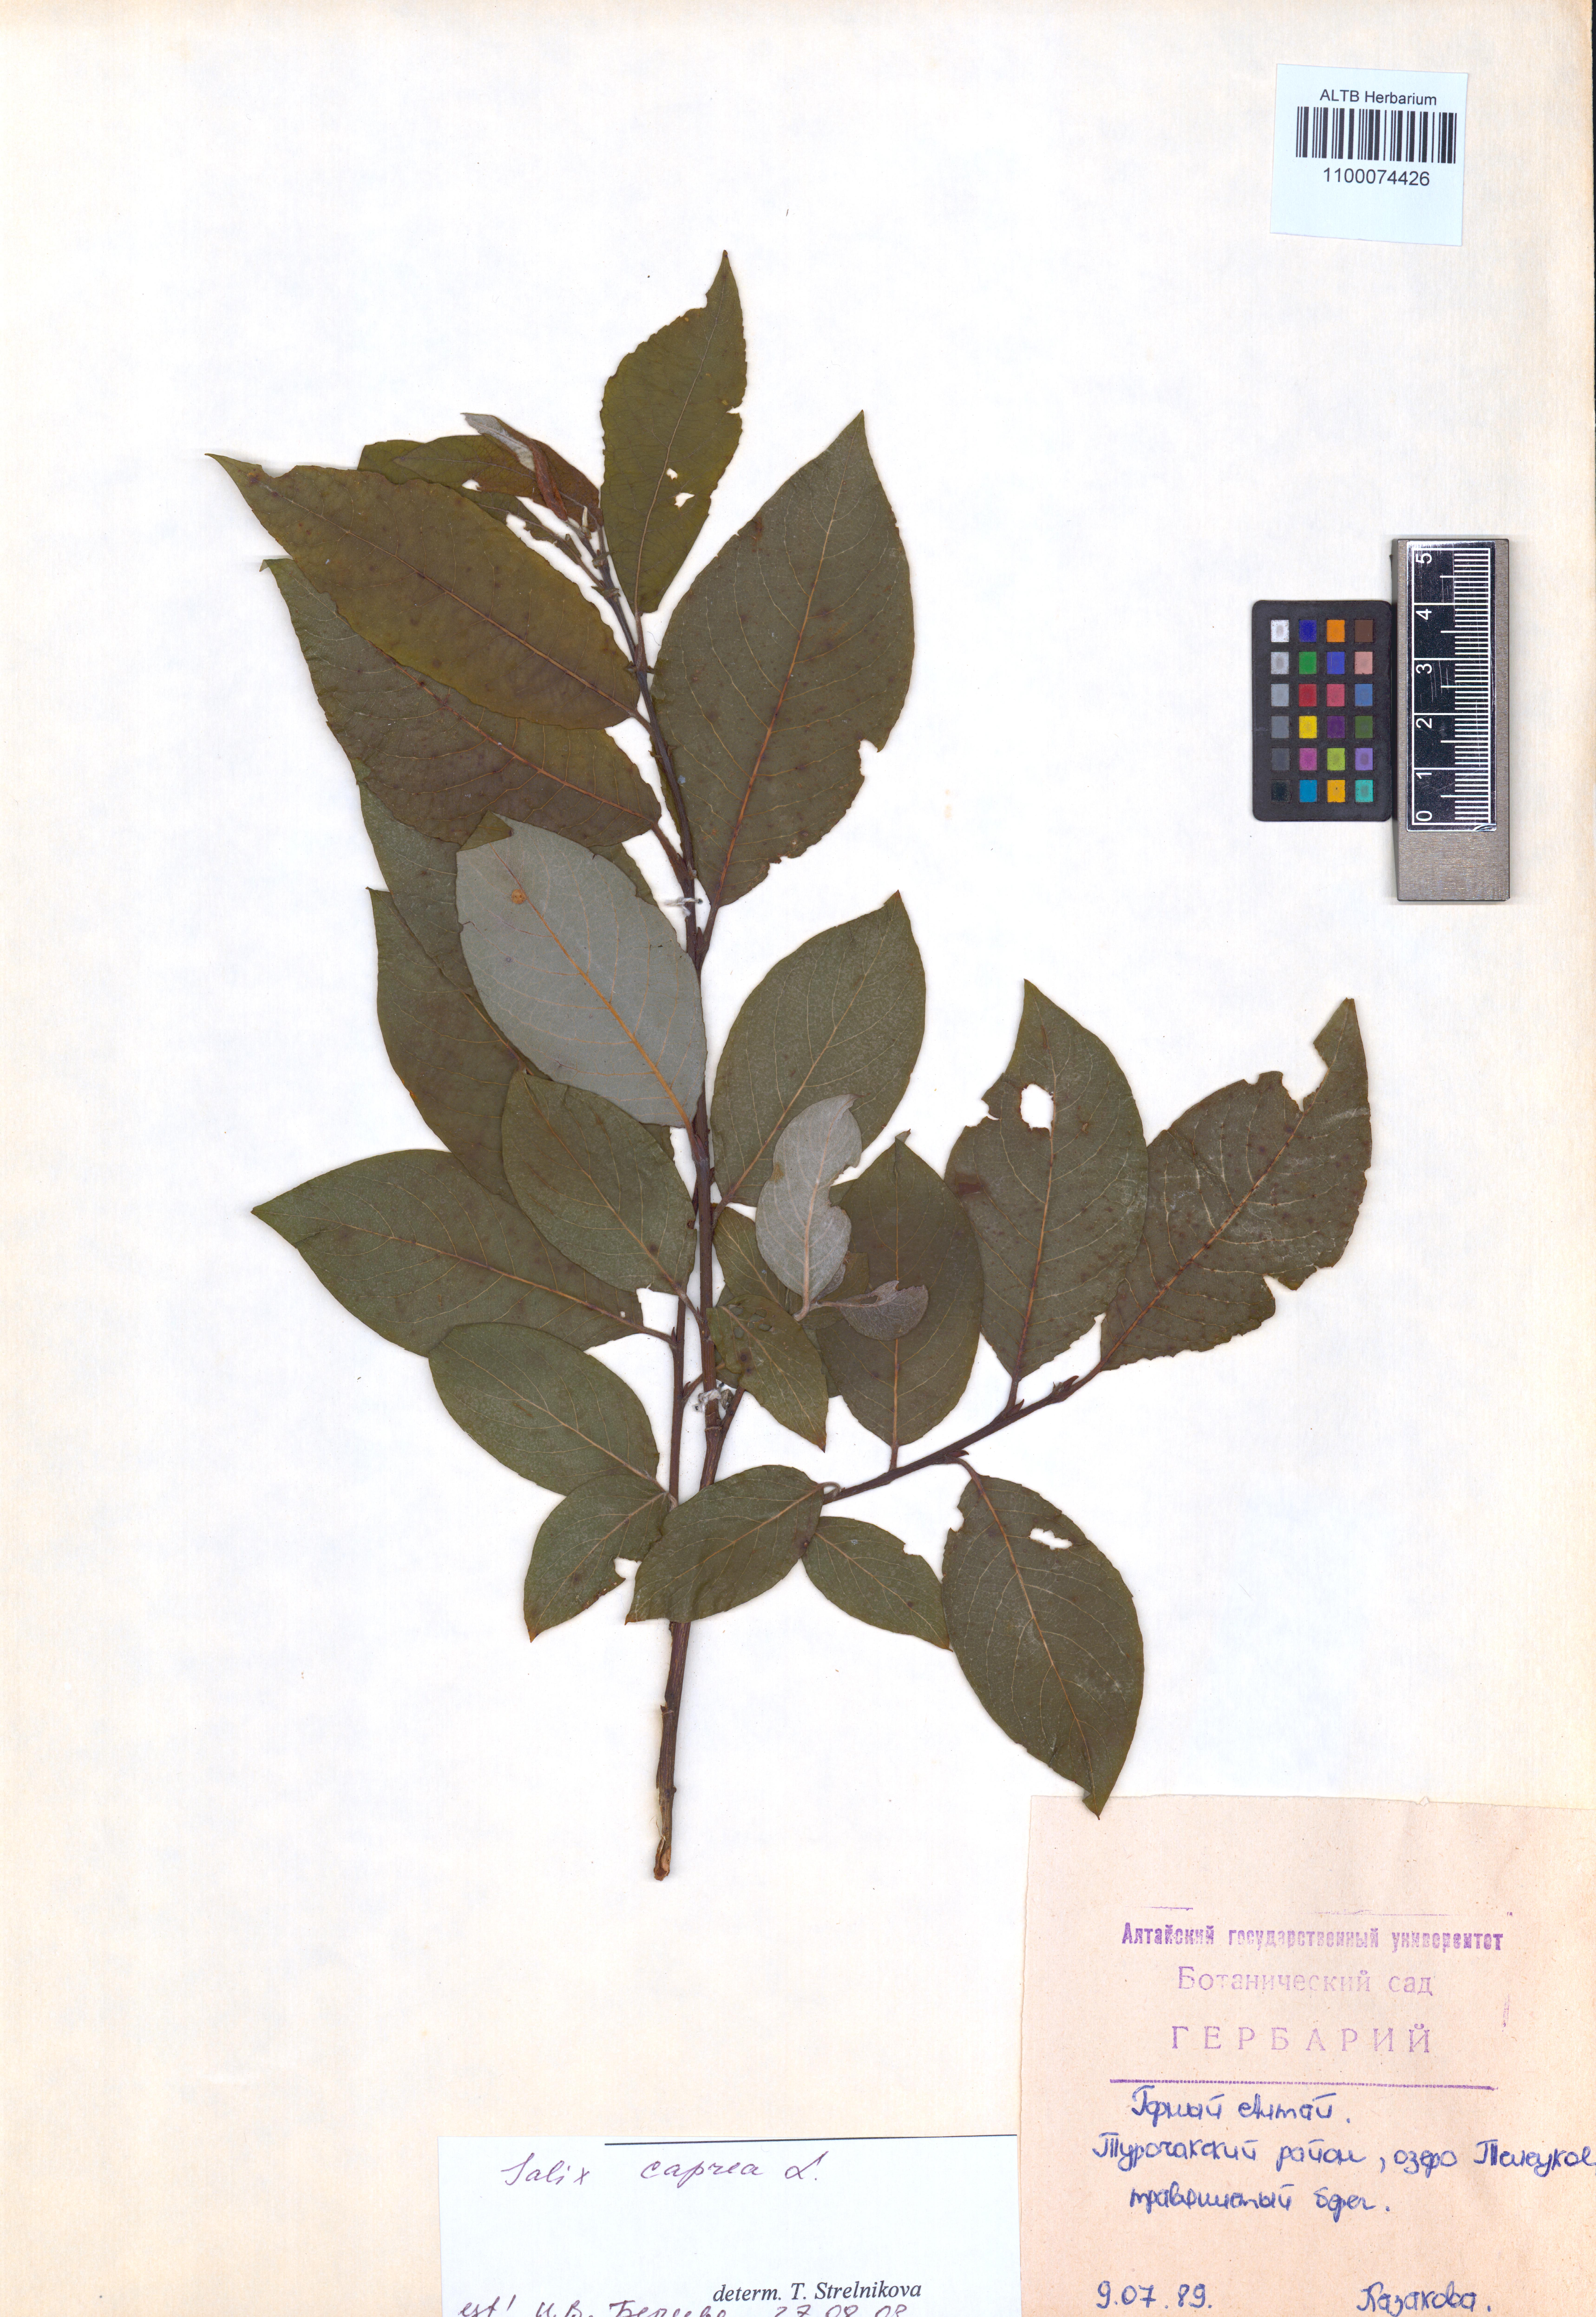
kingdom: Plantae
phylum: Tracheophyta
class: Magnoliopsida
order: Malpighiales
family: Salicaceae
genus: Salix
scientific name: Salix caprea
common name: Goat willow
